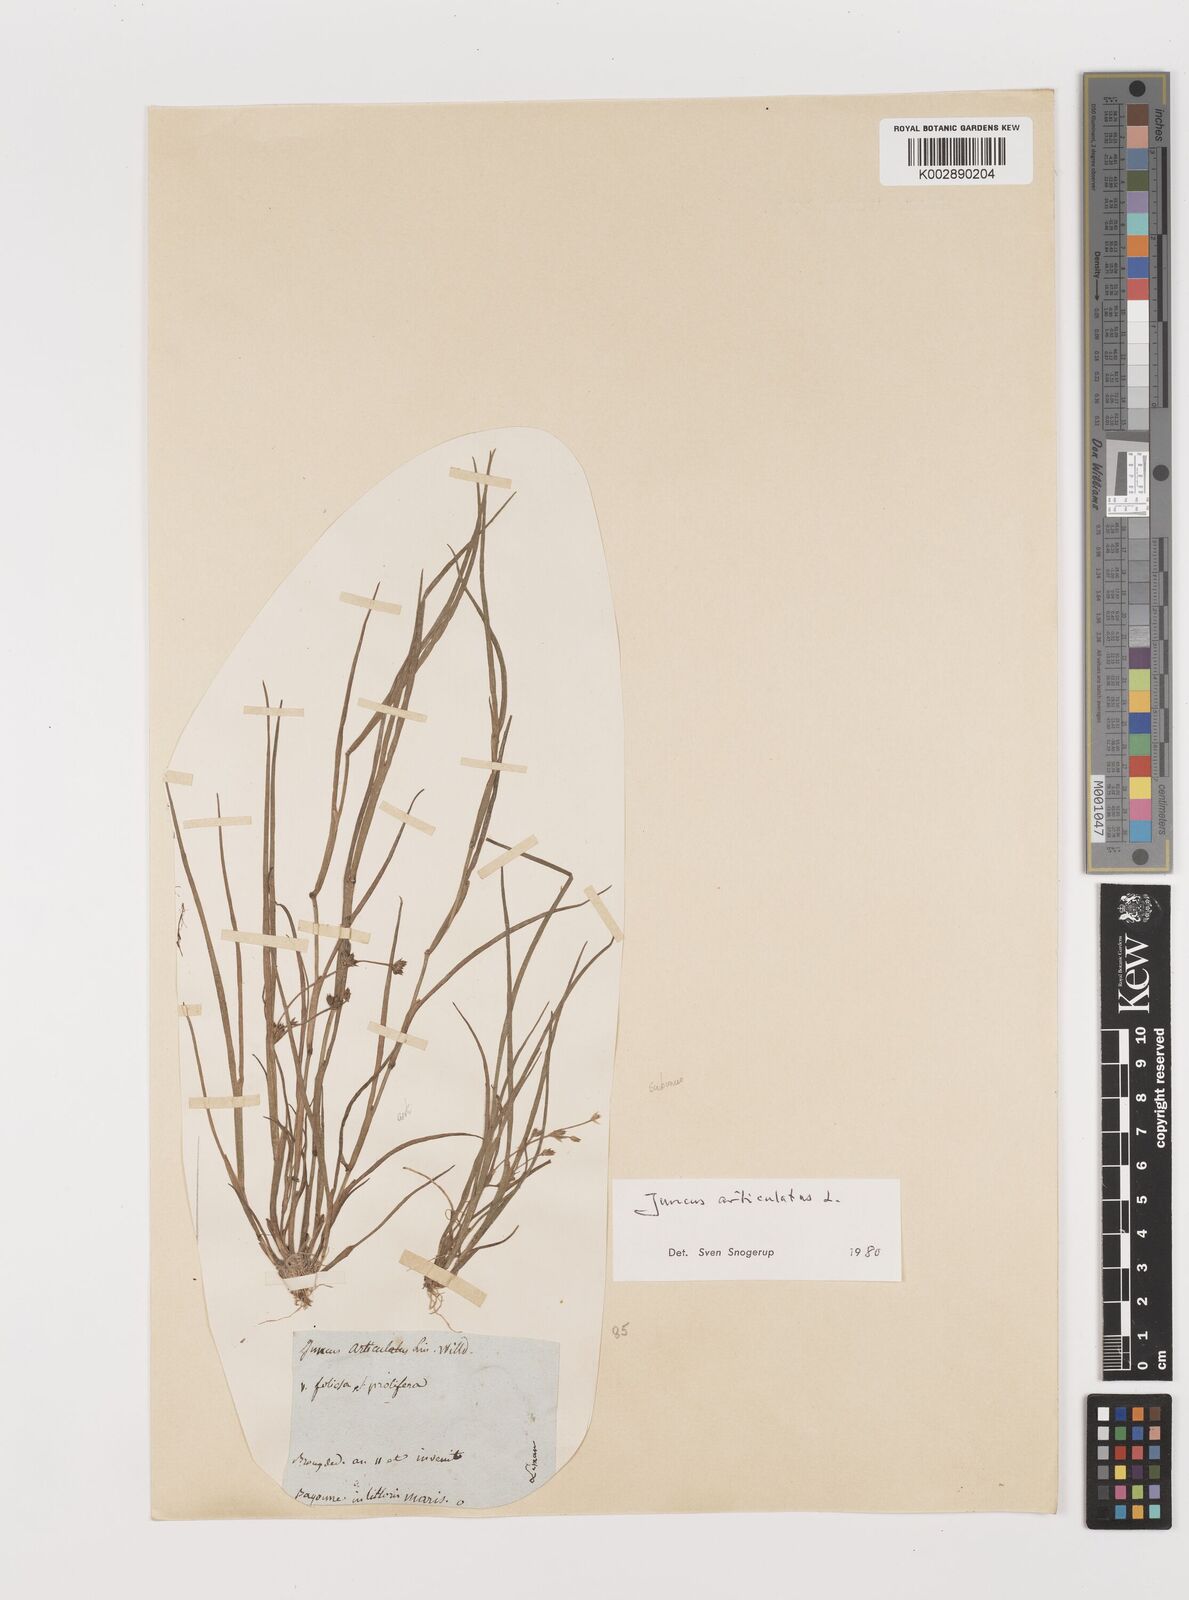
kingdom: Plantae
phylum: Tracheophyta
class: Liliopsida
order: Poales
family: Juncaceae
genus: Juncus
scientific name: Juncus articulatus
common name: Jointed rush
